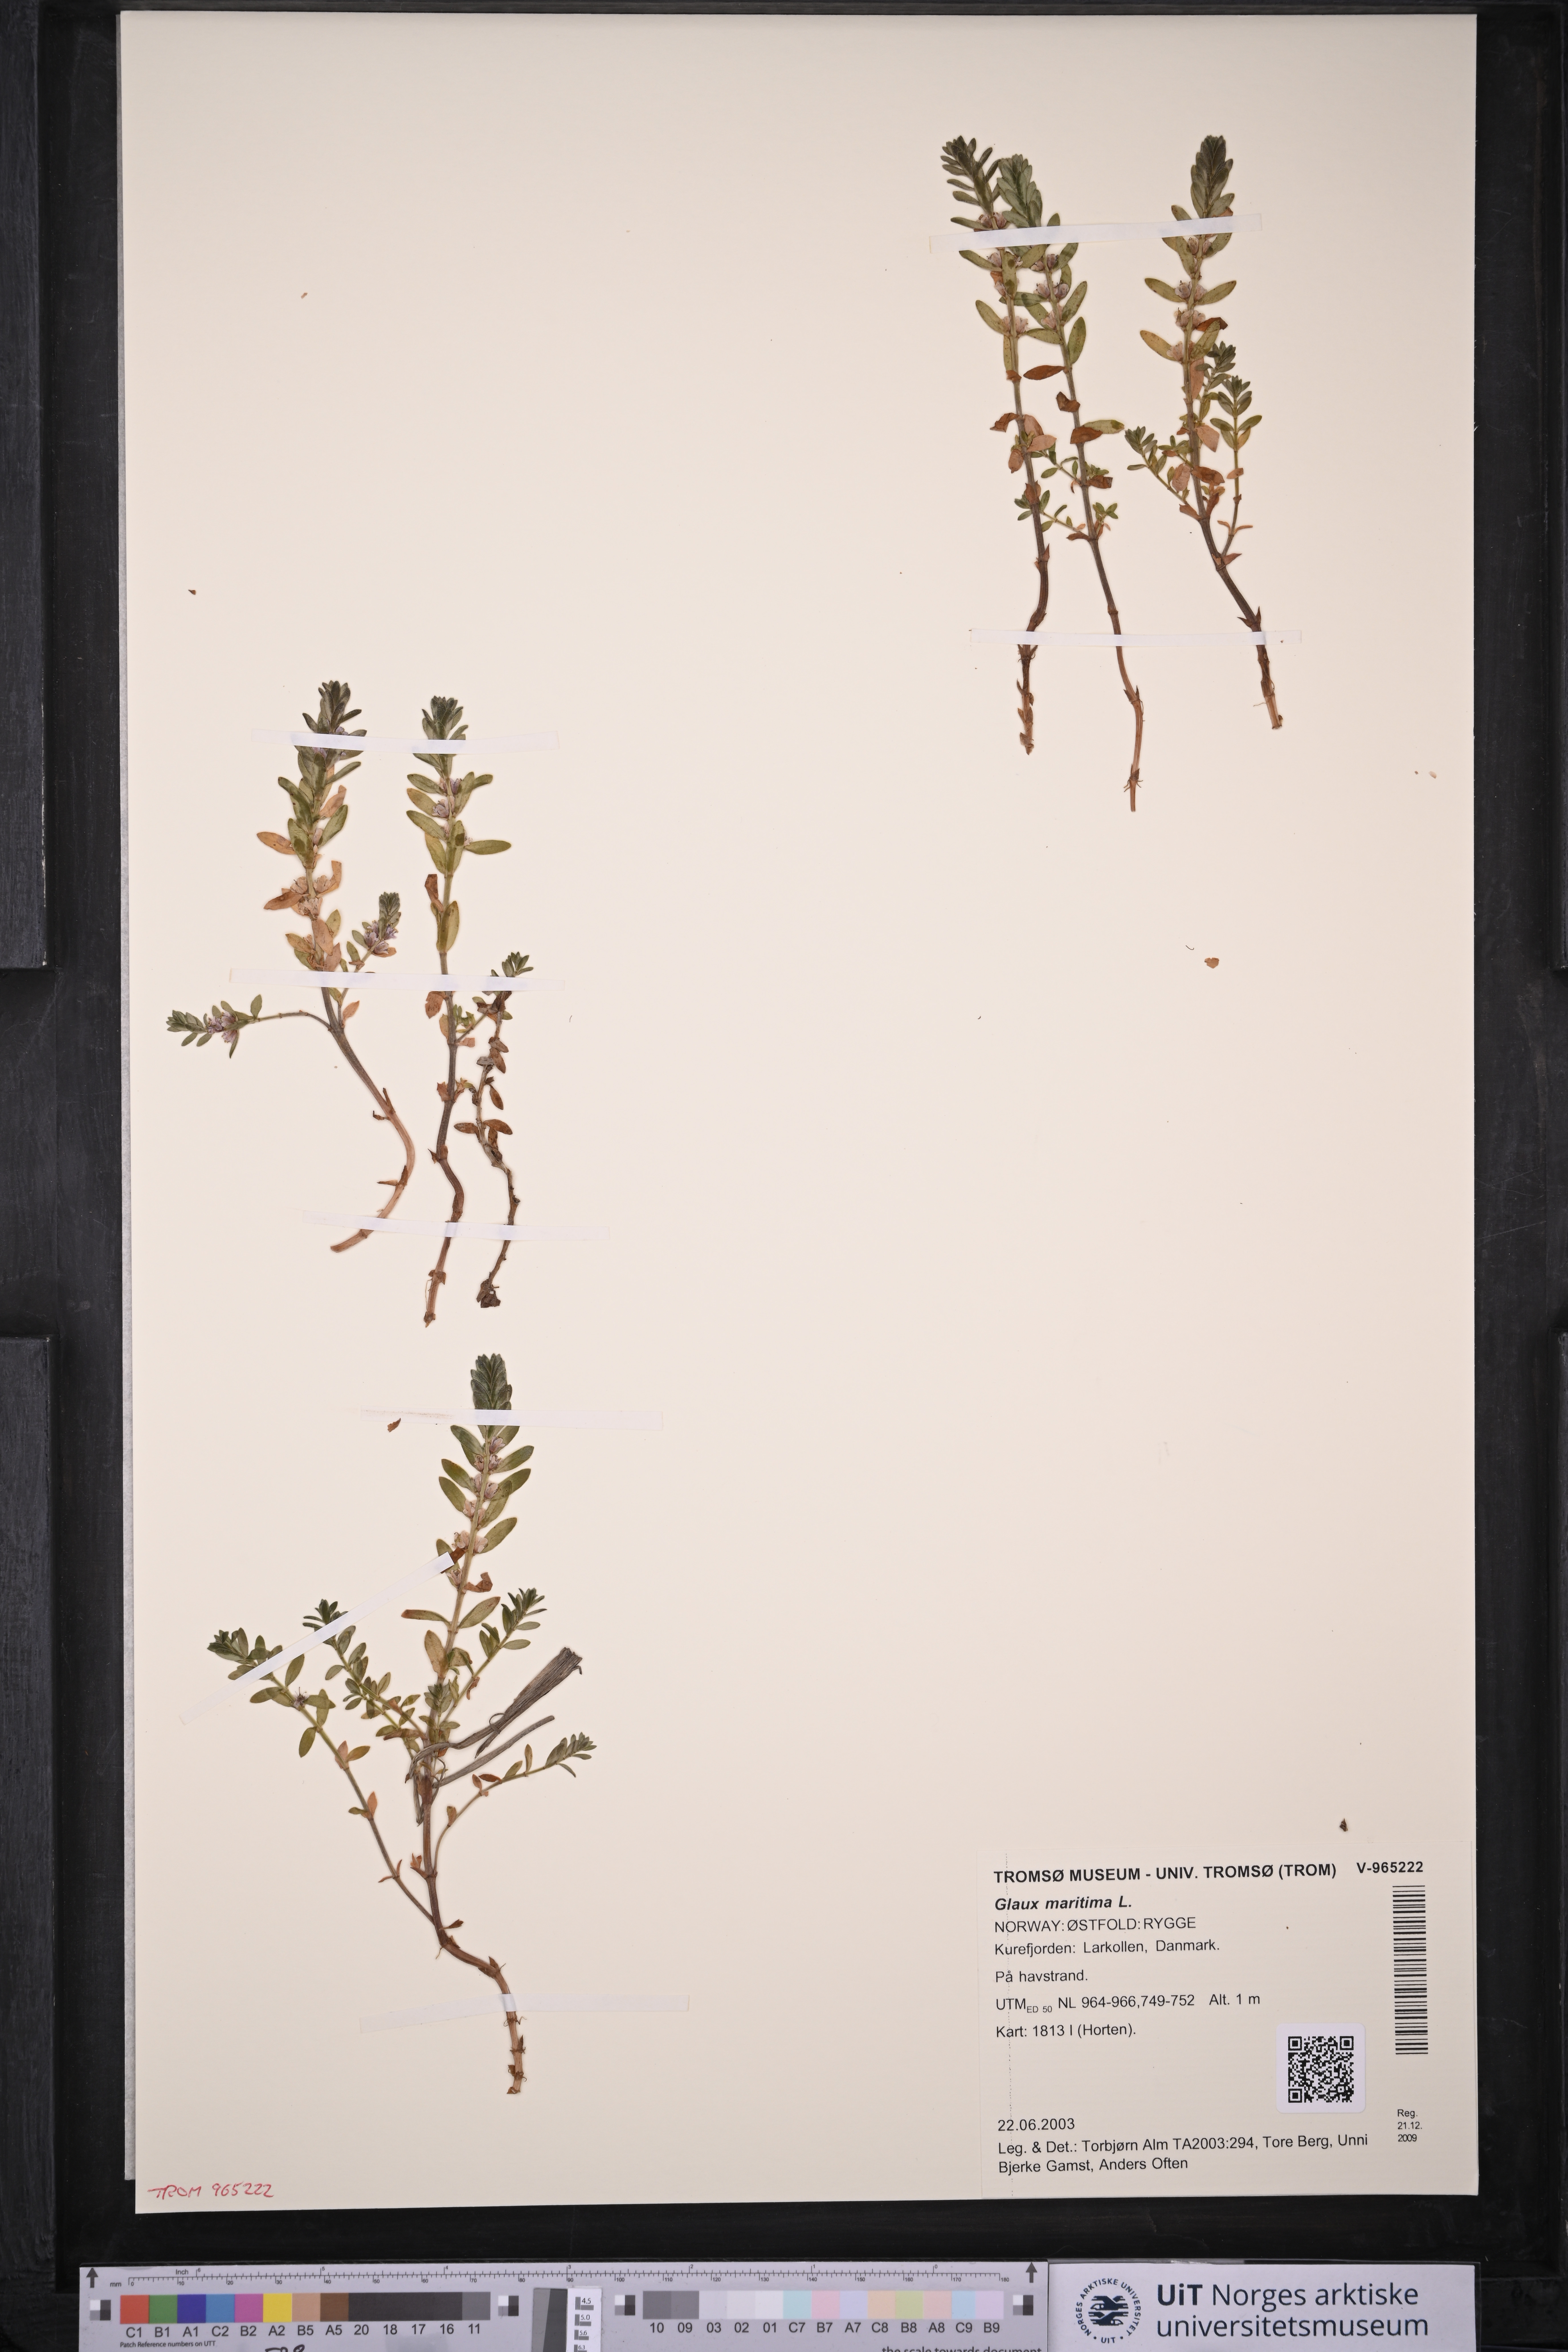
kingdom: Plantae
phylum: Tracheophyta
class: Magnoliopsida
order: Ericales
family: Primulaceae
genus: Lysimachia
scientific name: Lysimachia maritima
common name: Sea milkwort
